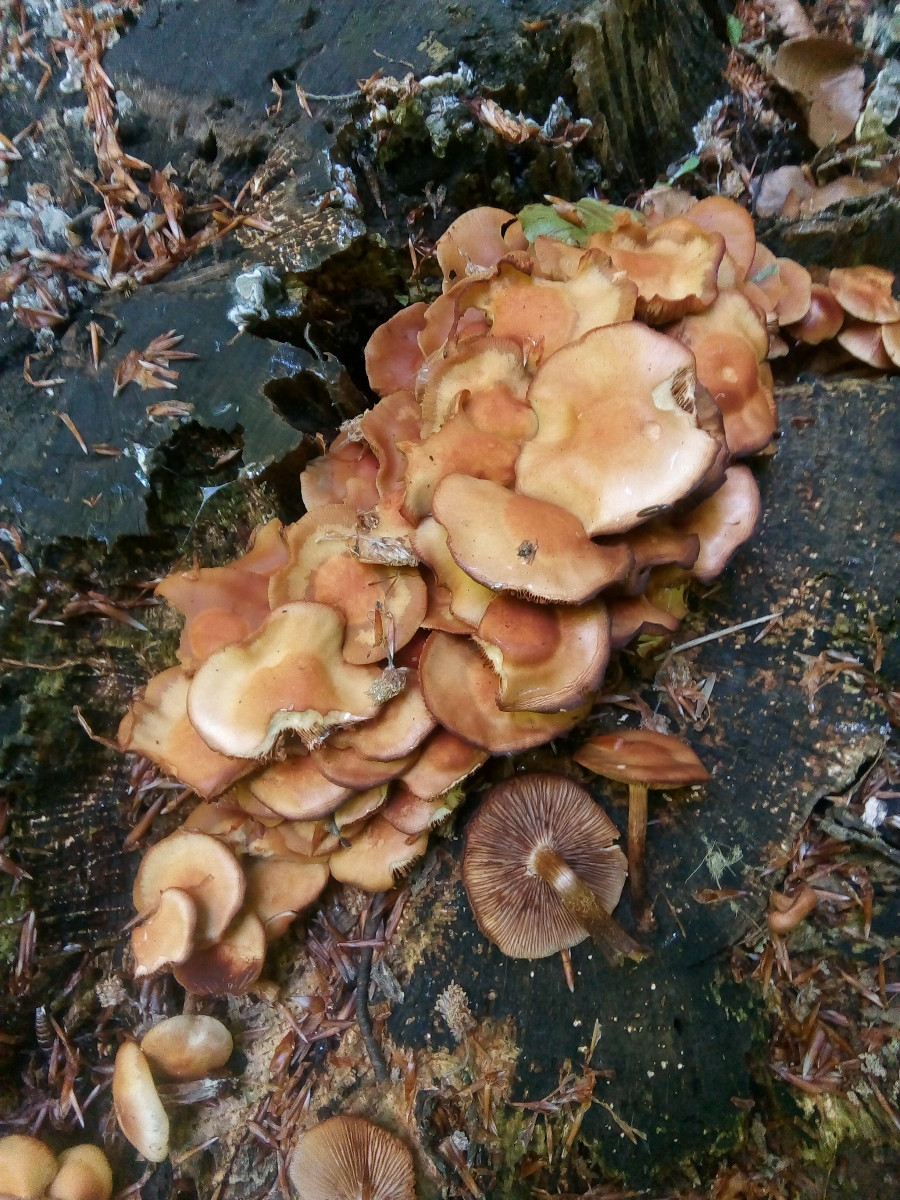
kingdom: Fungi
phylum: Basidiomycota
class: Agaricomycetes
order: Agaricales
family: Strophariaceae
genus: Kuehneromyces
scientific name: Kuehneromyces mutabilis
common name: foranderlig skælhat
